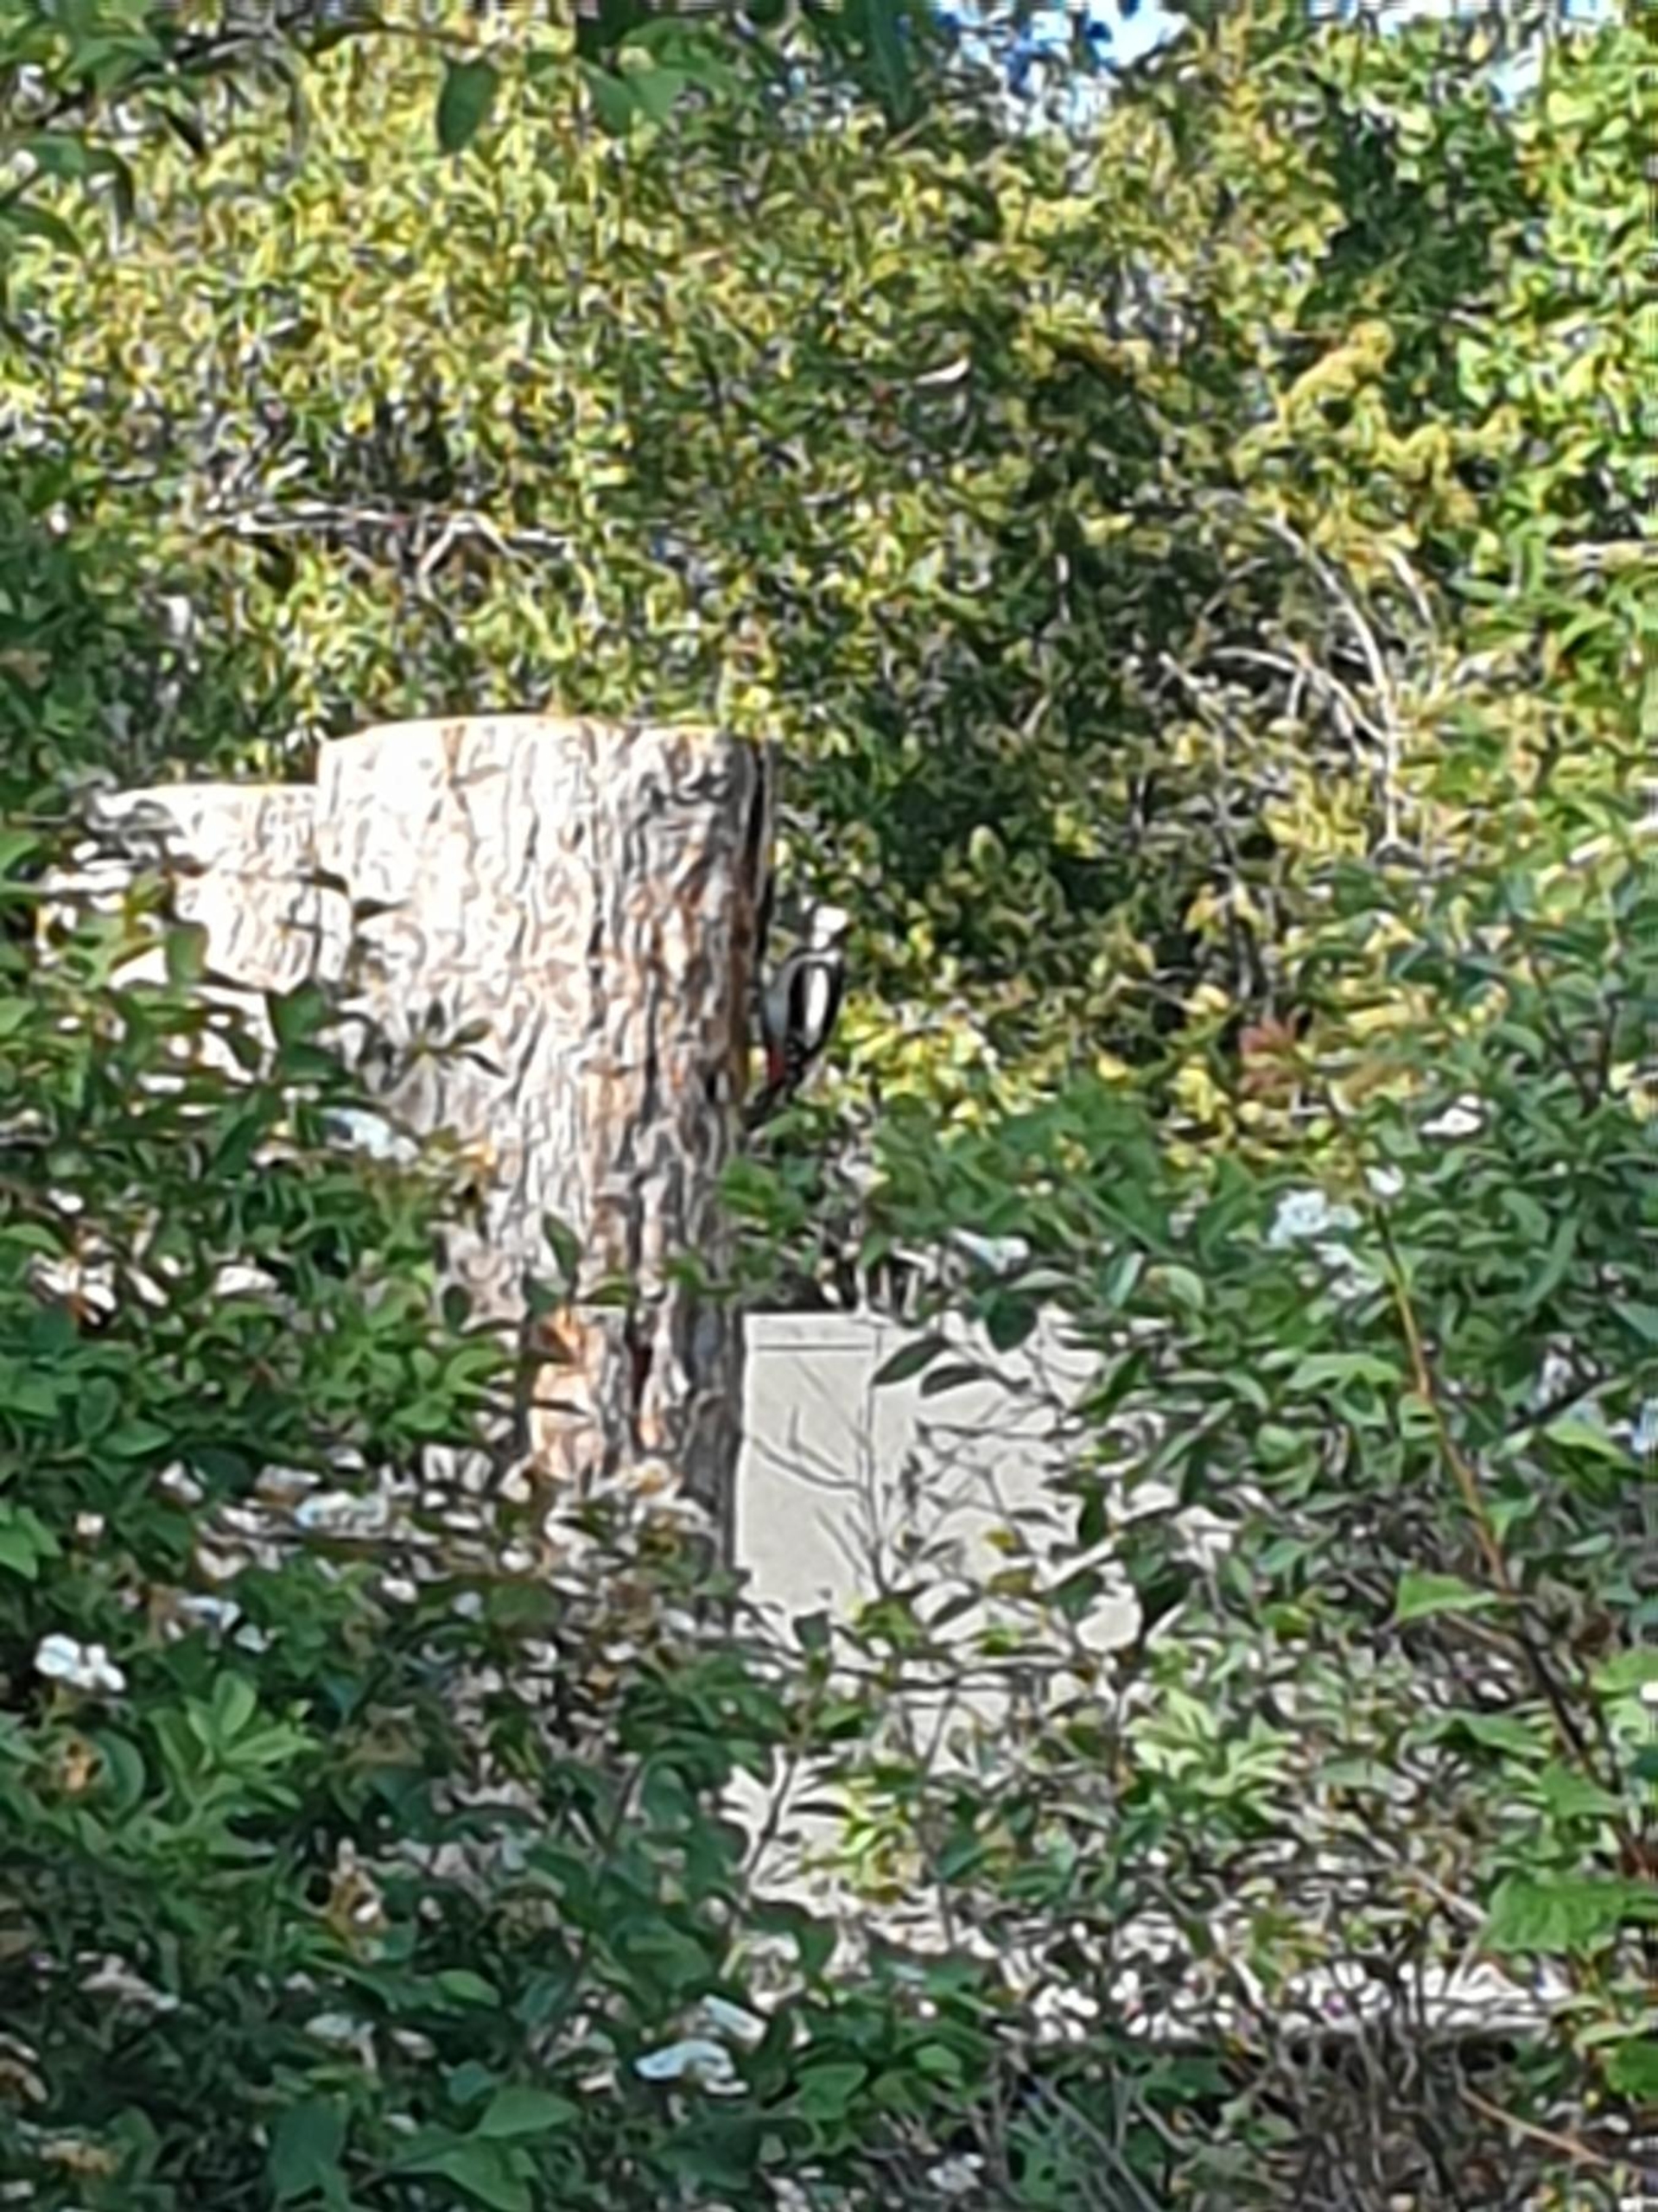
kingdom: Animalia
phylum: Chordata
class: Aves
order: Piciformes
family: Picidae
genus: Dendrocopos
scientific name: Dendrocopos major
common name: Stor flagspætte
